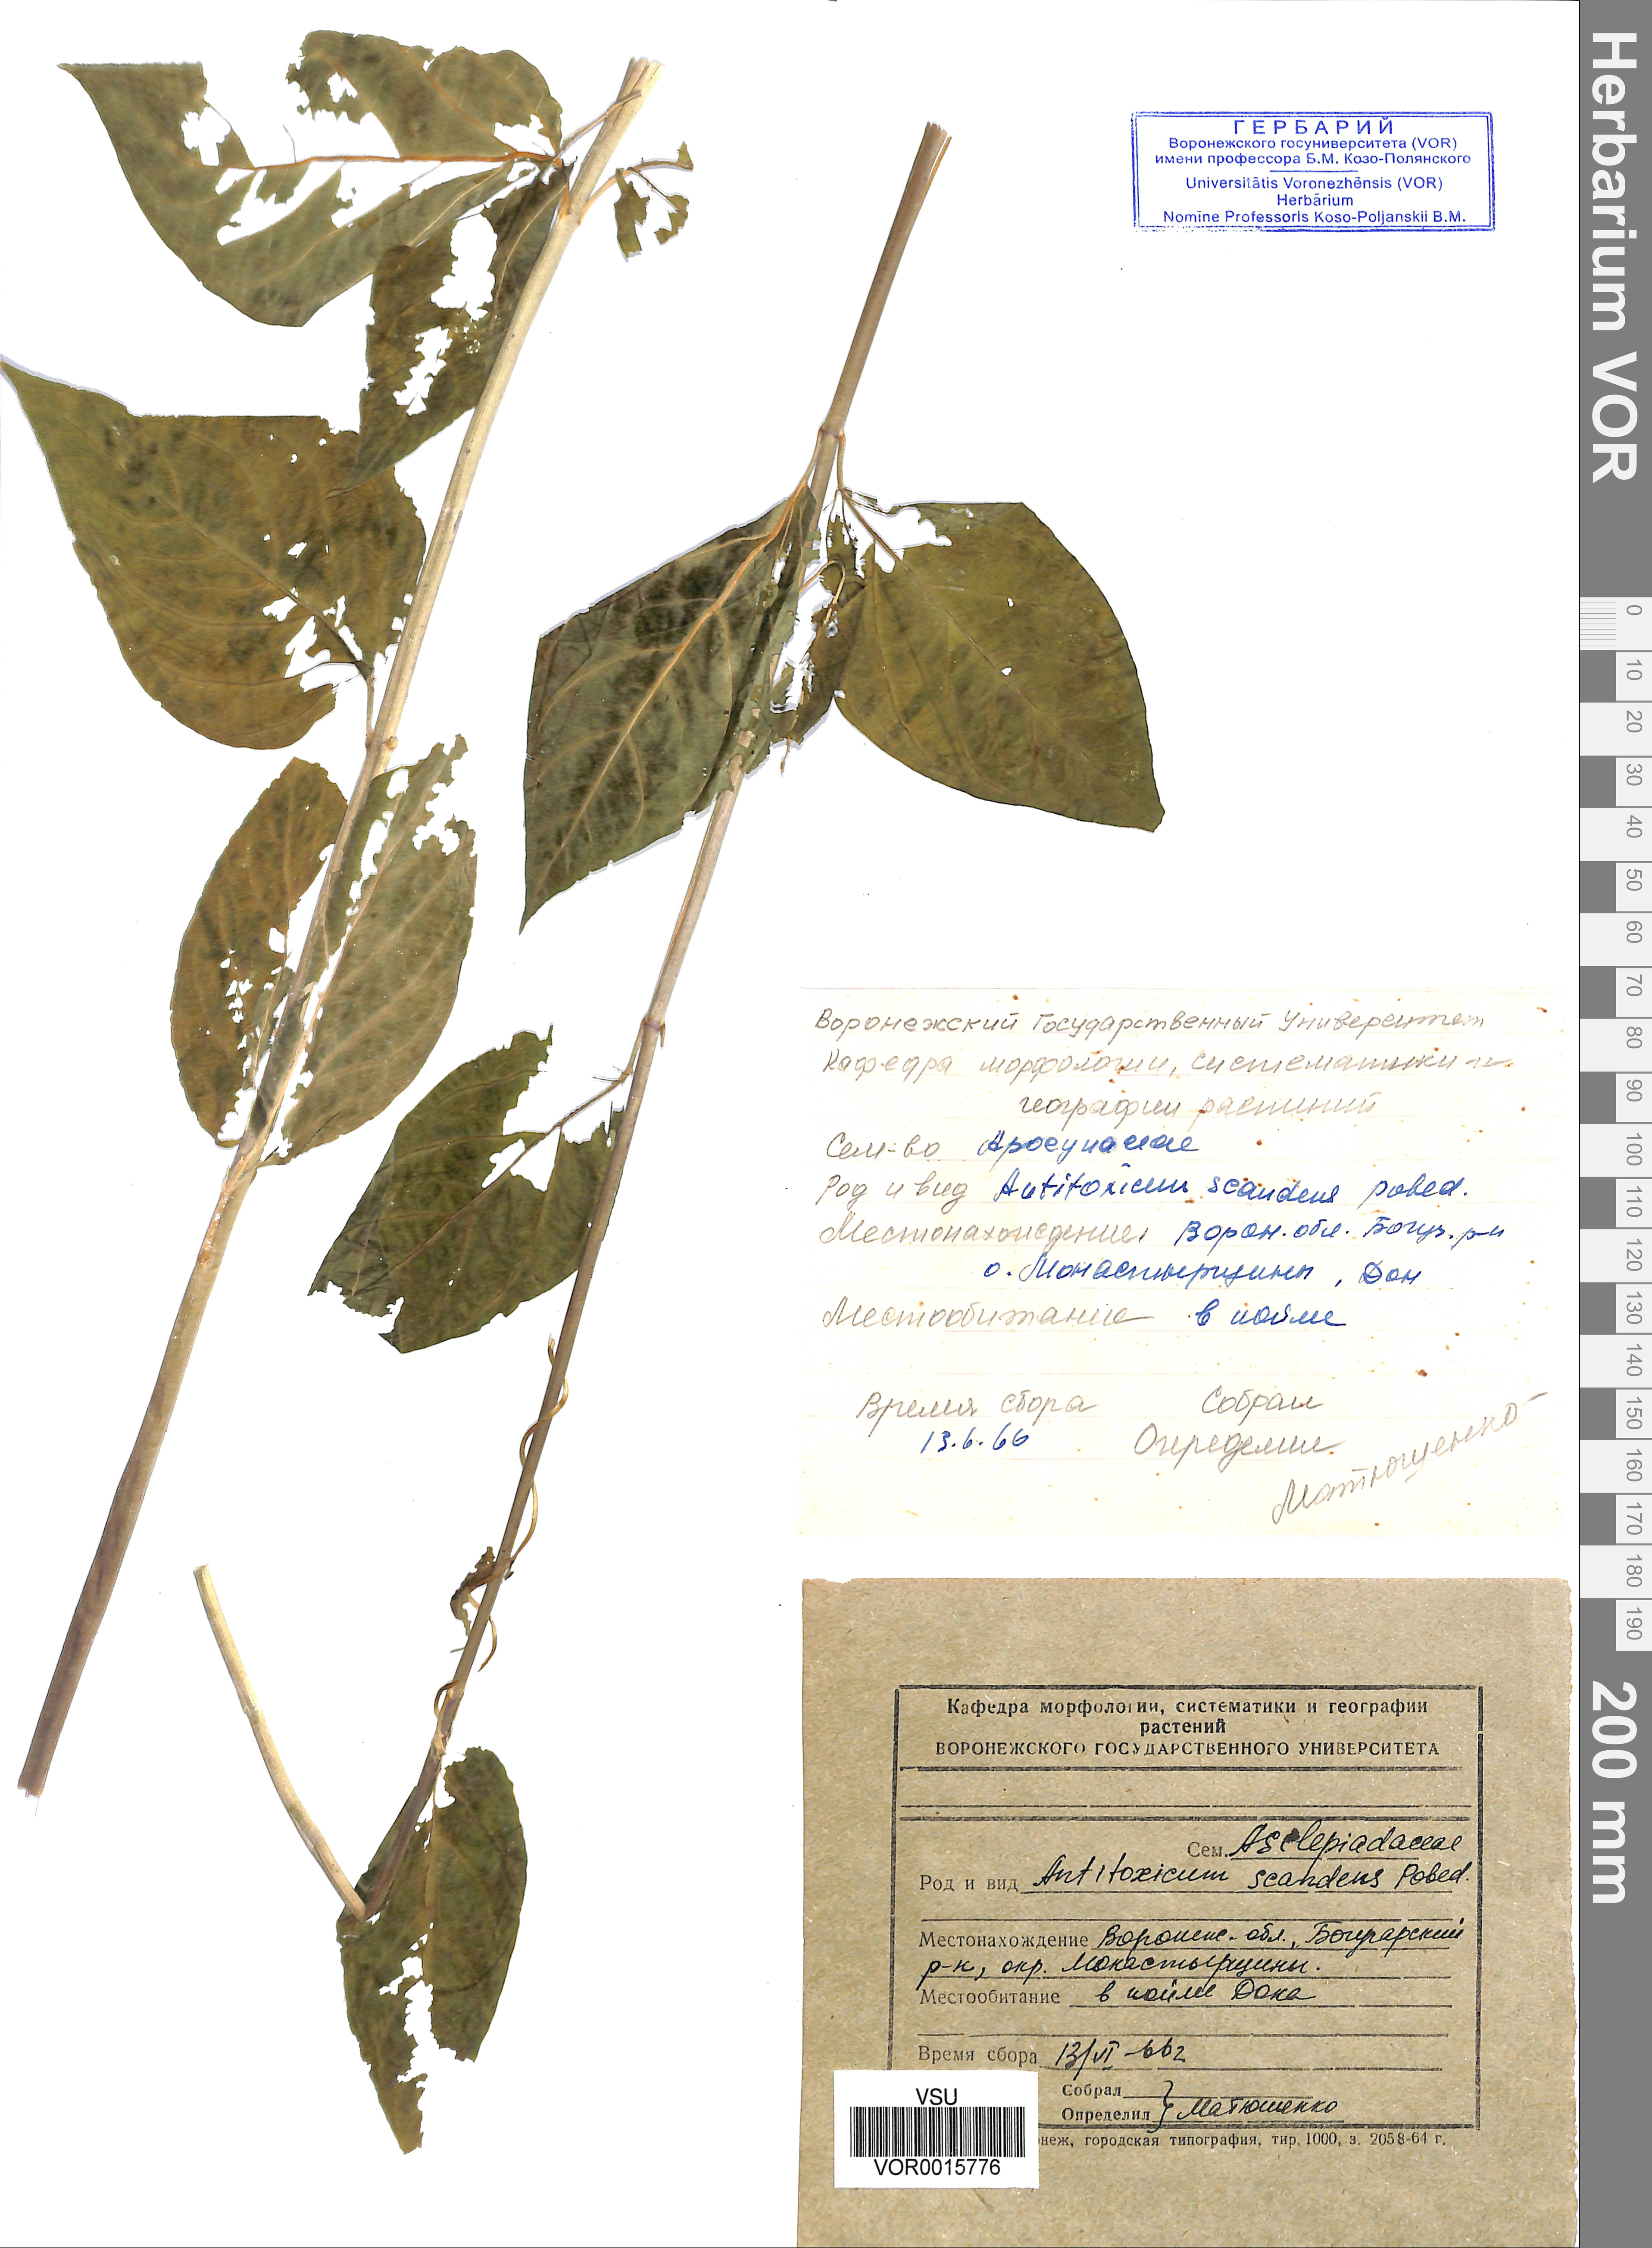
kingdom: Plantae
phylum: Tracheophyta
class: Magnoliopsida
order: Gentianales
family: Apocynaceae
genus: Vincetoxicum
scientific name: Vincetoxicum hirundinaria
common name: White swallowwort
